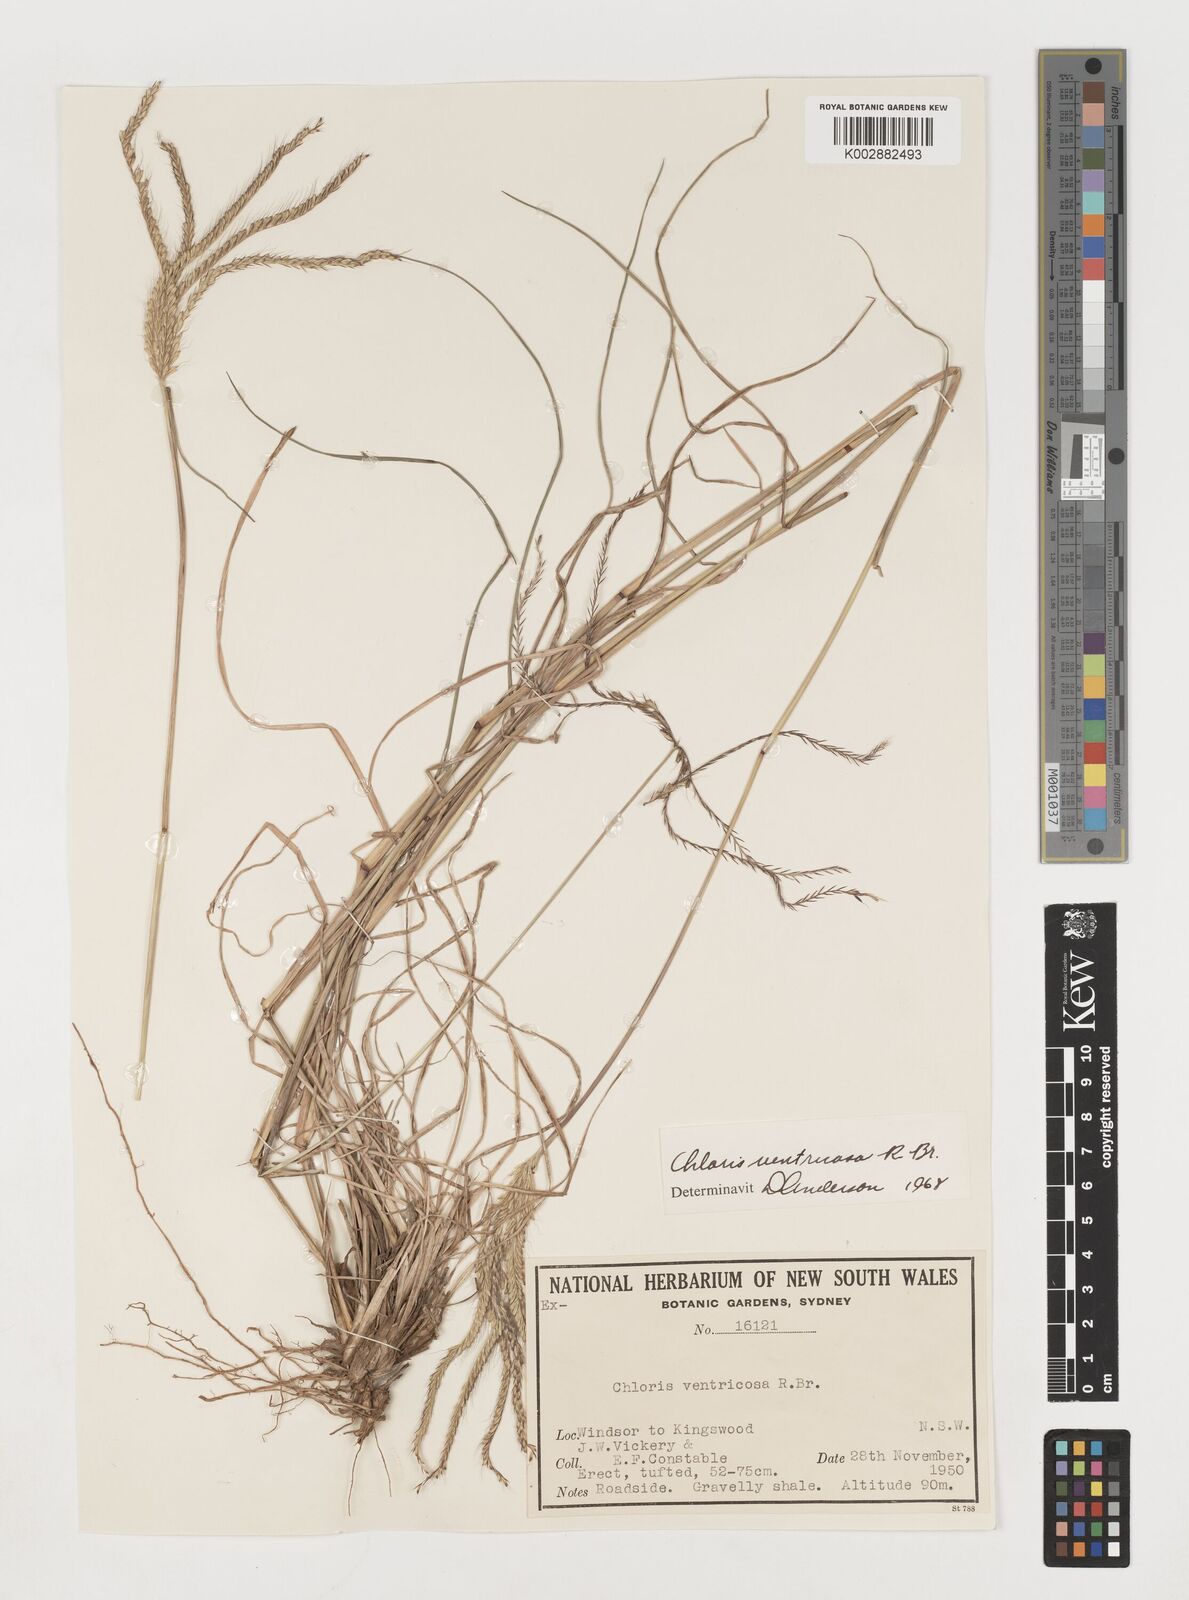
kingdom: Plantae
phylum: Tracheophyta
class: Liliopsida
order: Poales
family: Poaceae
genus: Chloris
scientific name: Chloris ventricosa
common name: Australian windmill grass
